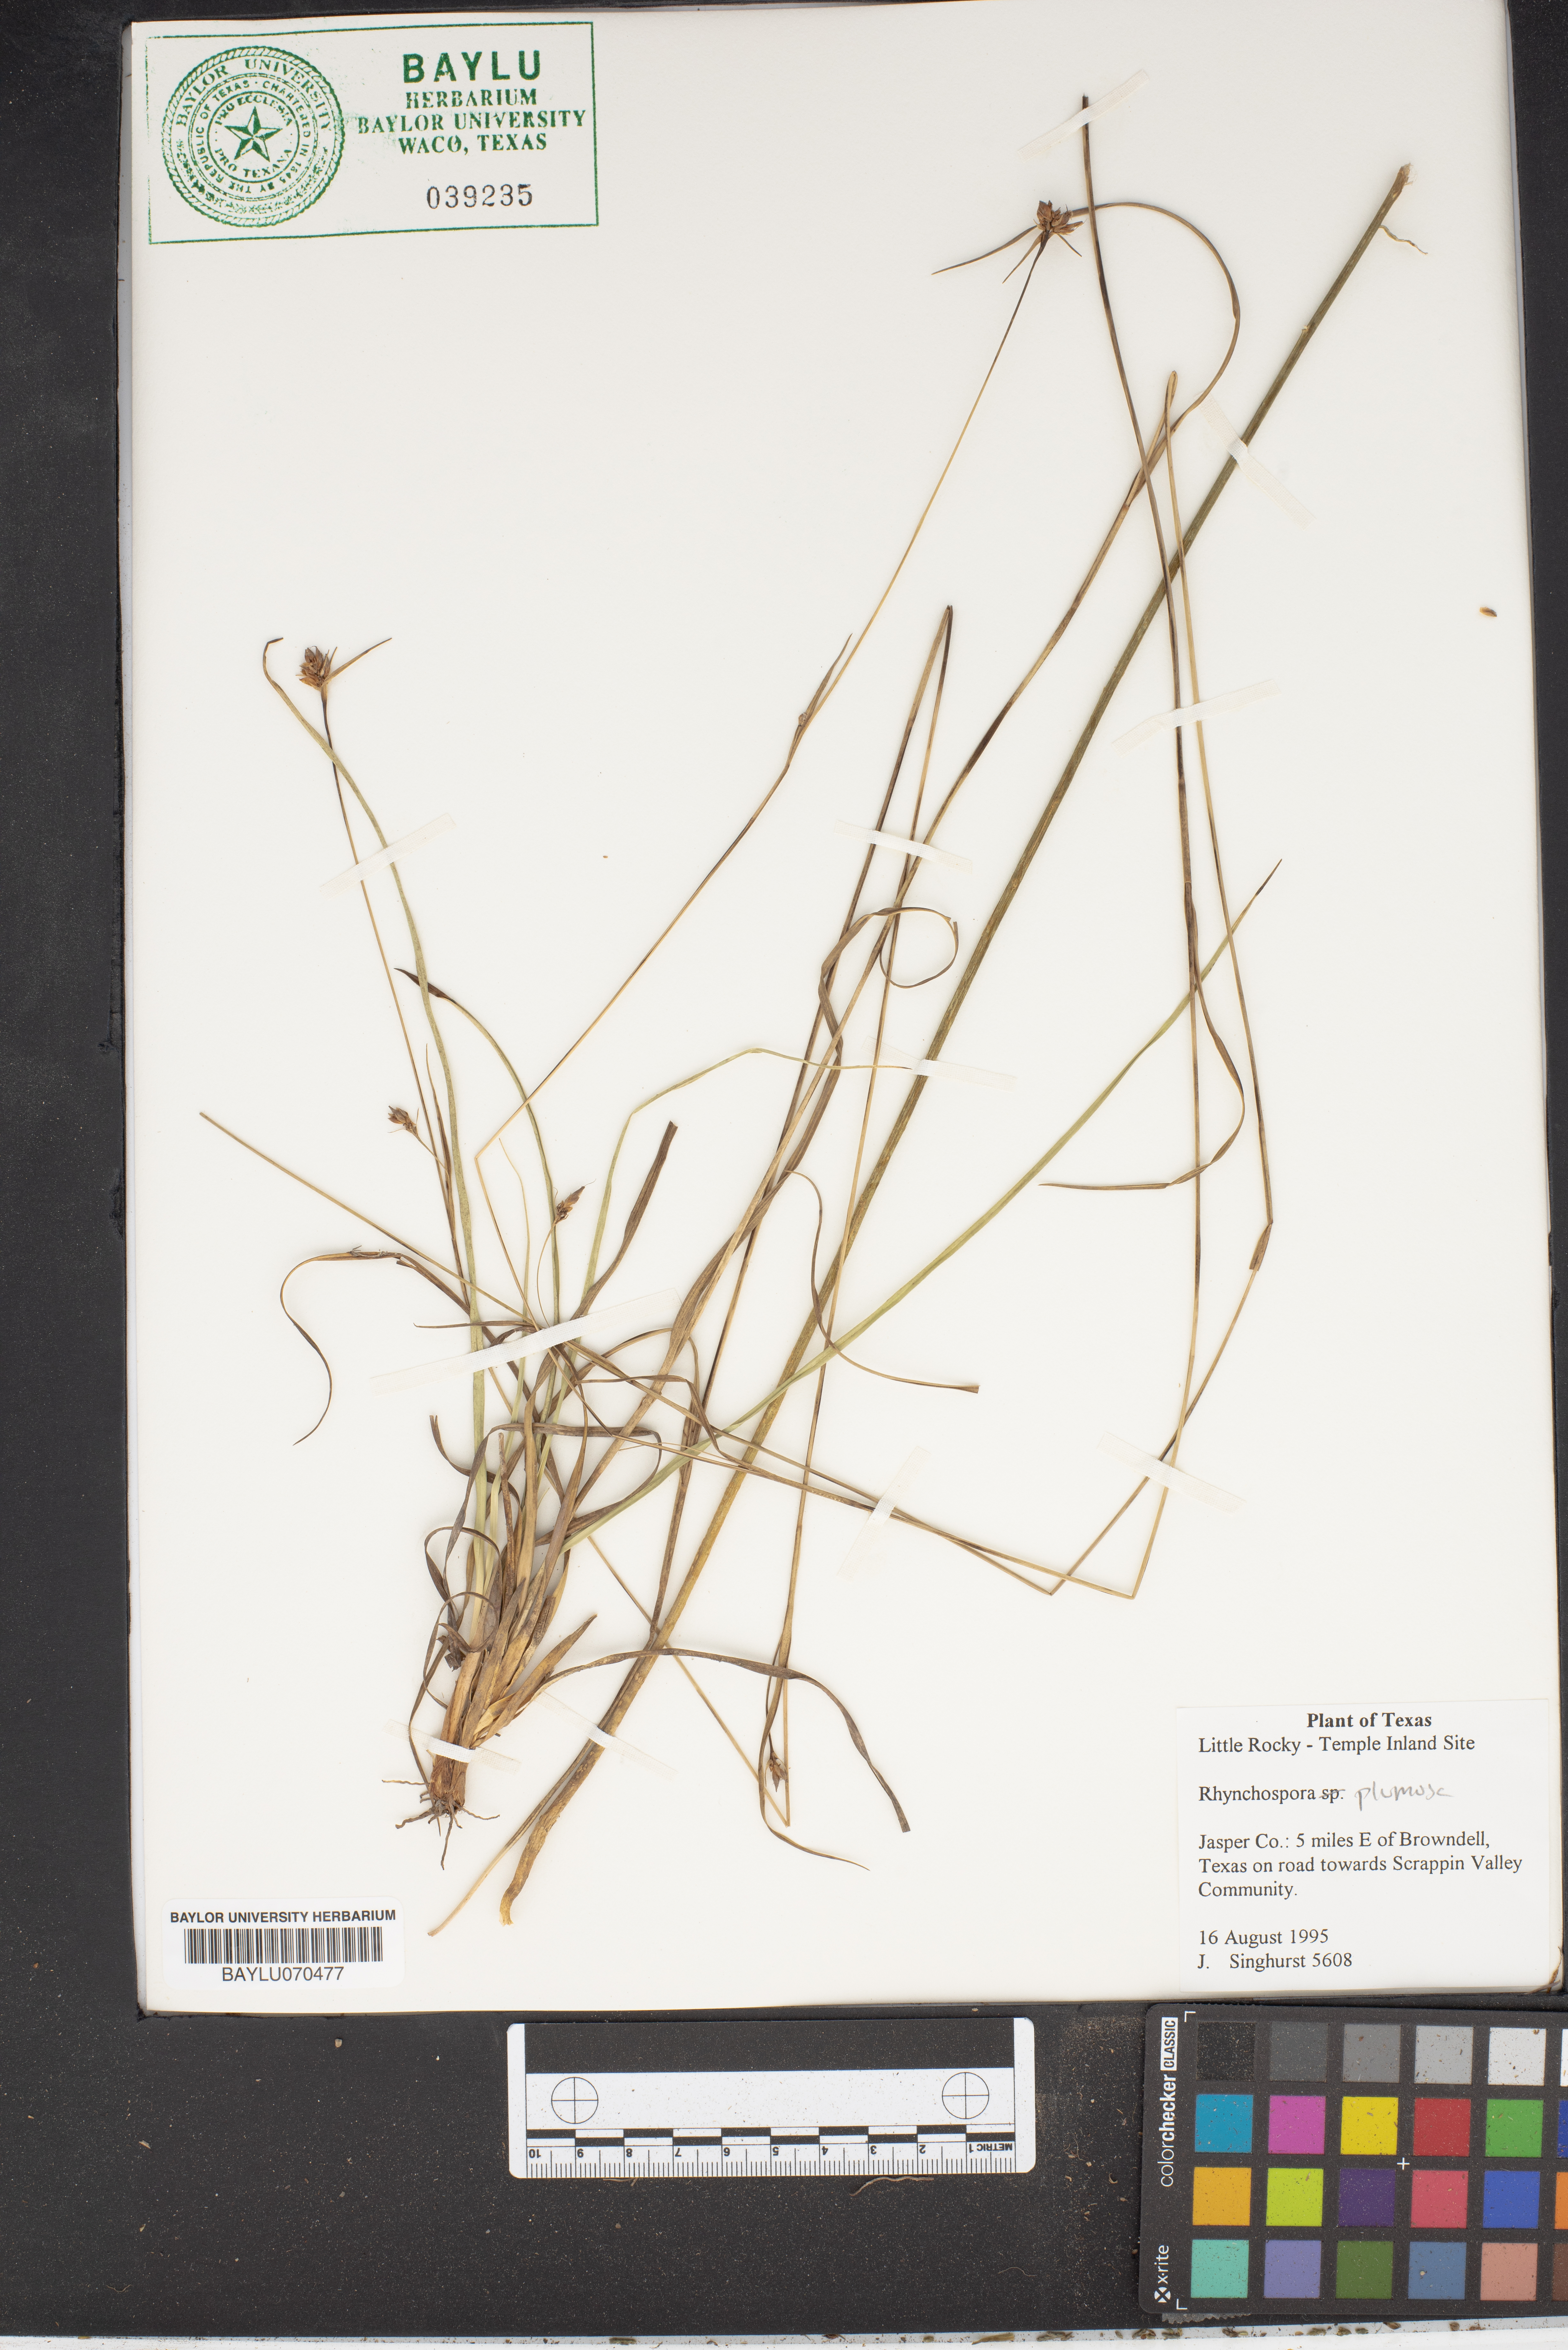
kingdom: Plantae
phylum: Tracheophyta
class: Liliopsida
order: Poales
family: Cyperaceae
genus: Rhynchospora
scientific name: Rhynchospora plumosa
